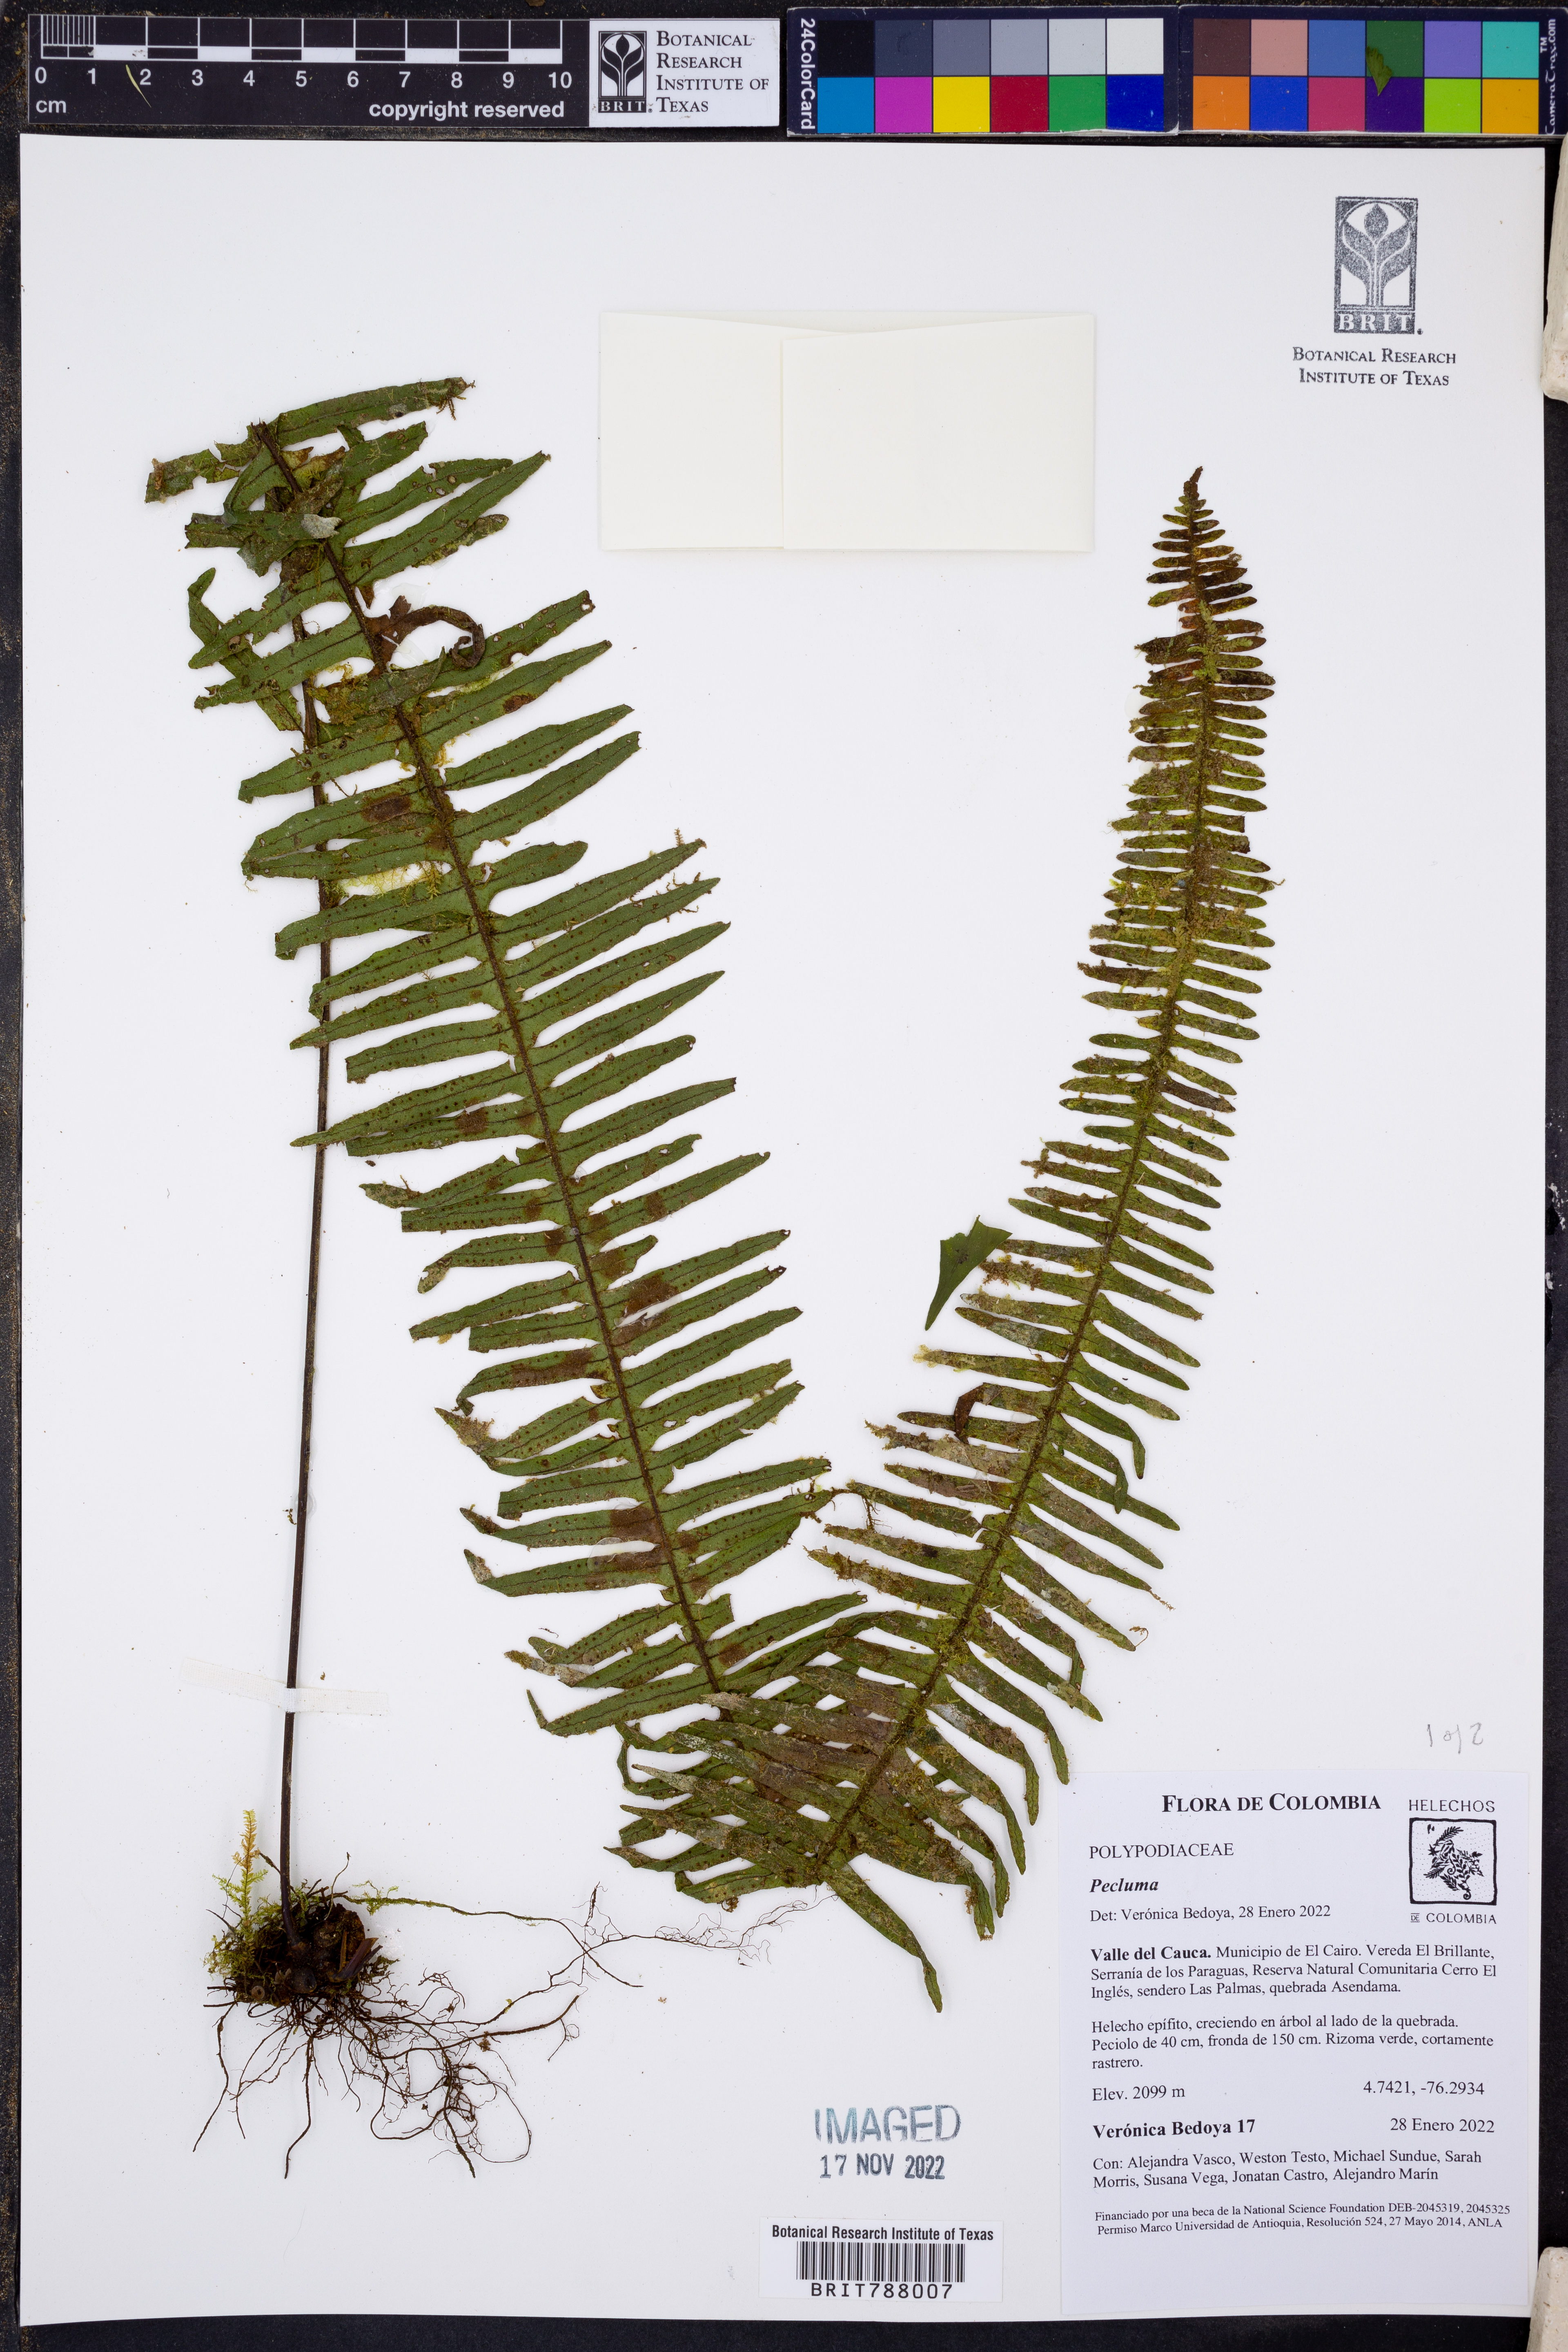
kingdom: Plantae
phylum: Tracheophyta
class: Polypodiopsida
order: Polypodiales
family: Polypodiaceae
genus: Pecluma
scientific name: Pecluma
